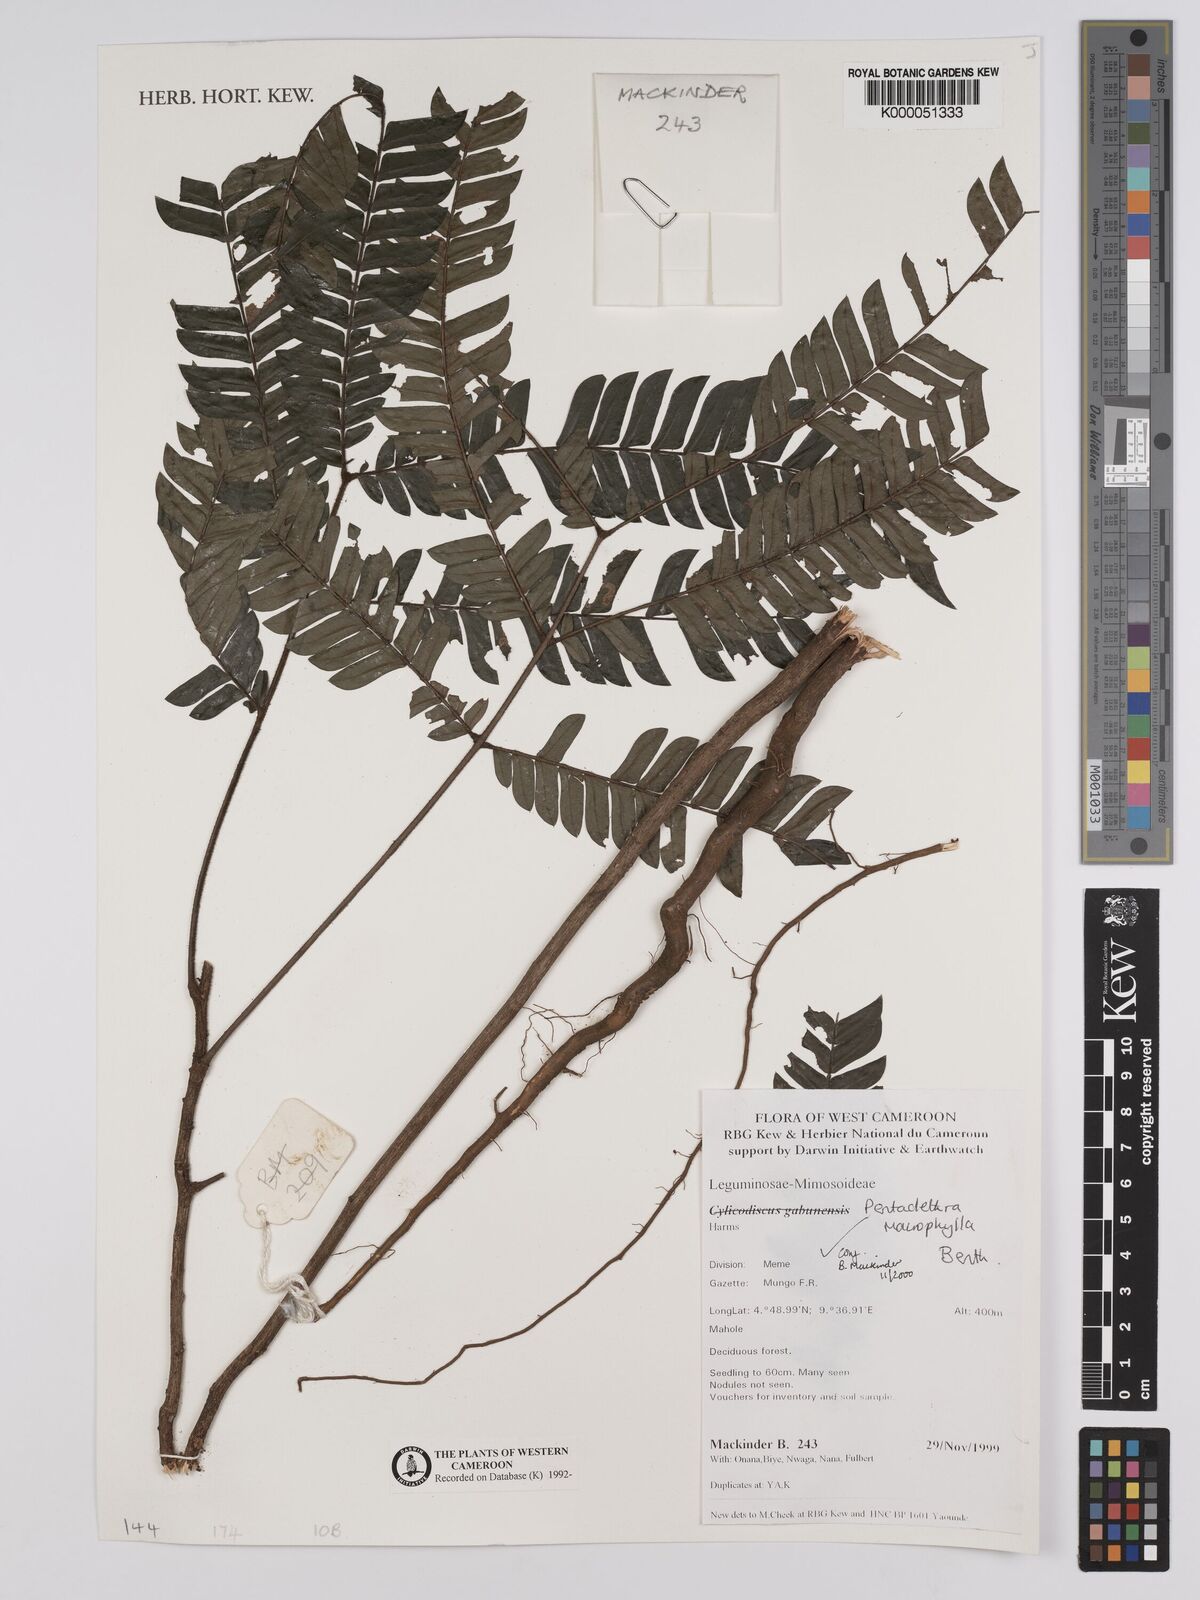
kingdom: Plantae
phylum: Tracheophyta
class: Magnoliopsida
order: Fabales
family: Fabaceae
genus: Pentaclethra
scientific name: Pentaclethra macrophylla
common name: African oil bean
